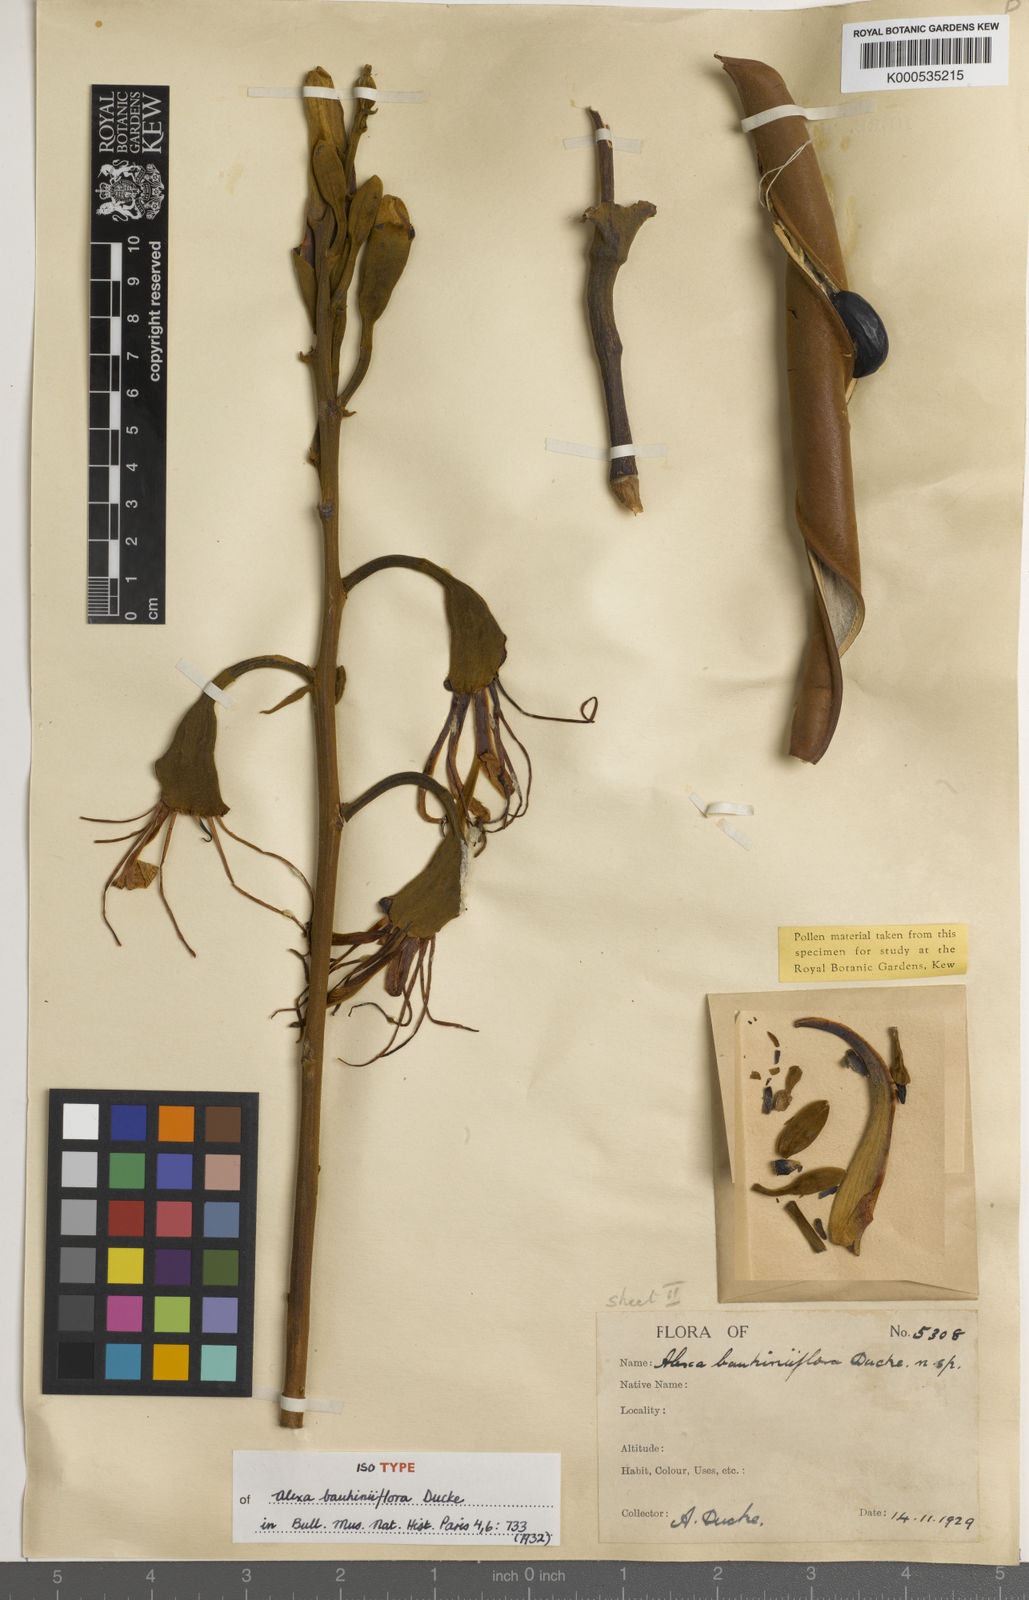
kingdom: Plantae
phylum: Tracheophyta
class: Magnoliopsida
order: Fabales
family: Fabaceae
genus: Alexa
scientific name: Alexa bauhiniiflora
